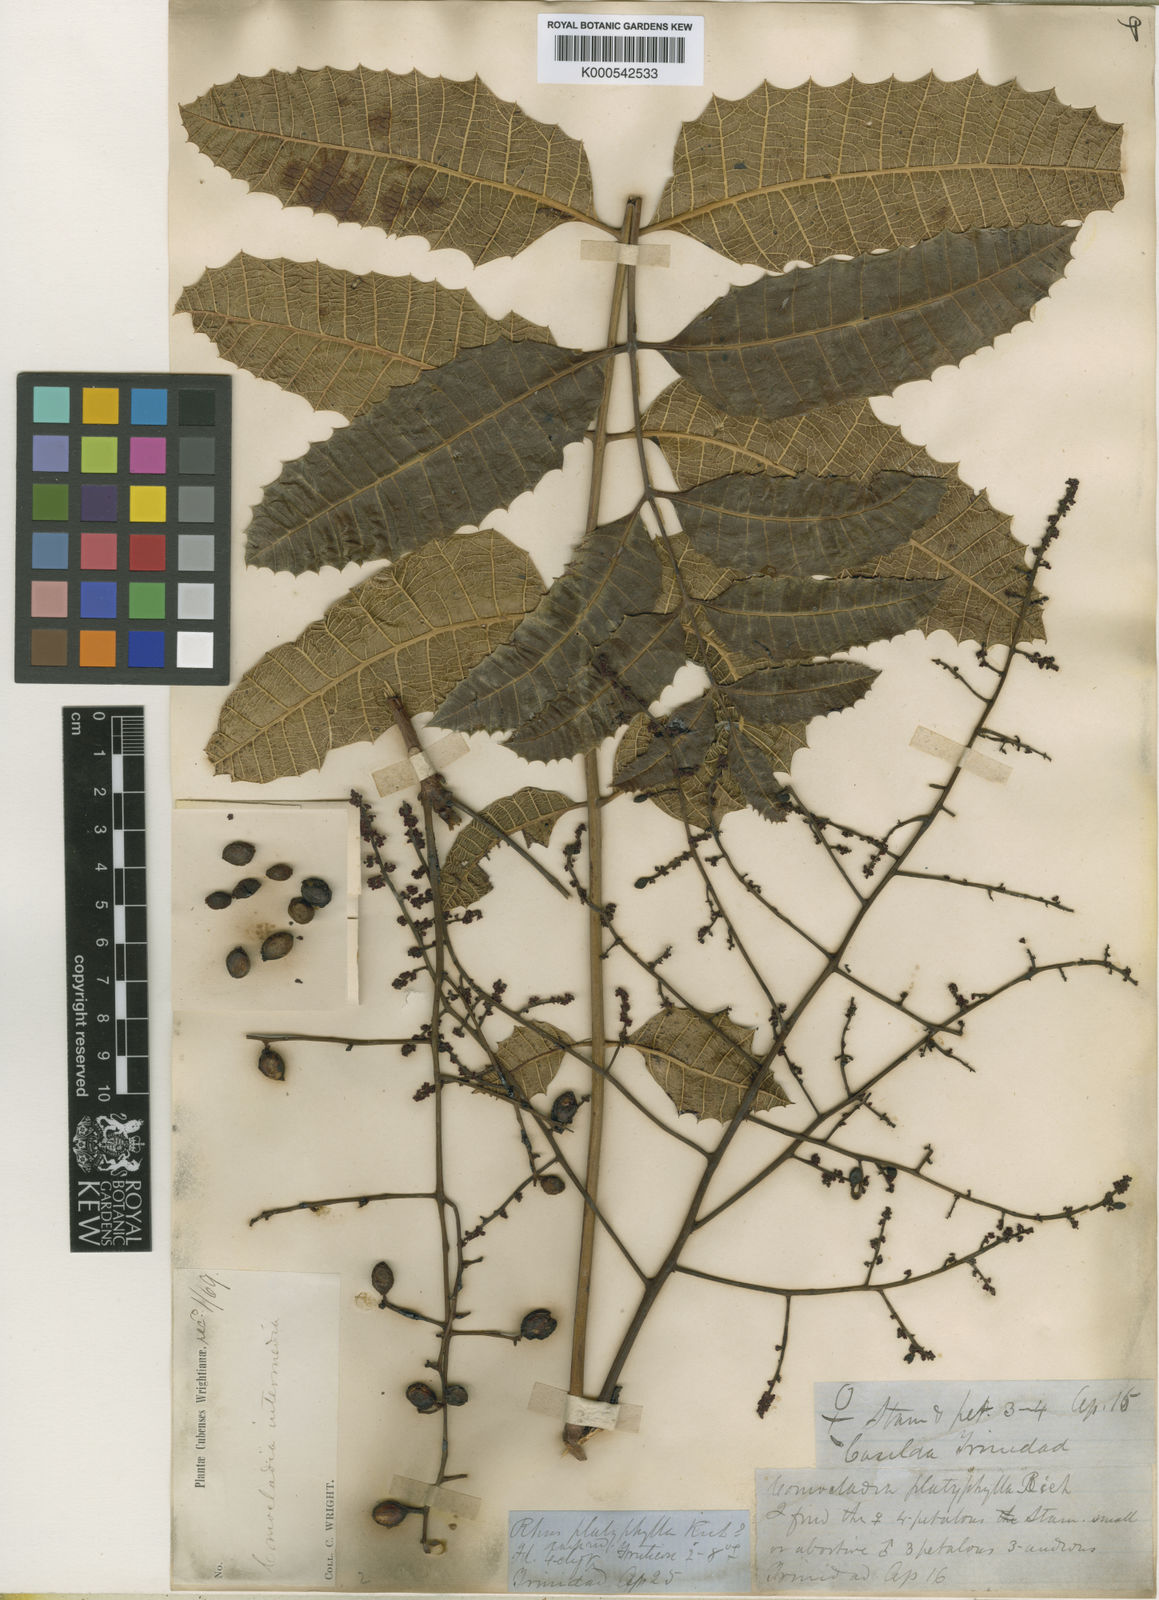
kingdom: Plantae
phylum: Tracheophyta
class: Magnoliopsida
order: Sapindales
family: Anacardiaceae
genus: Comocladia
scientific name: Comocladia intermedia
